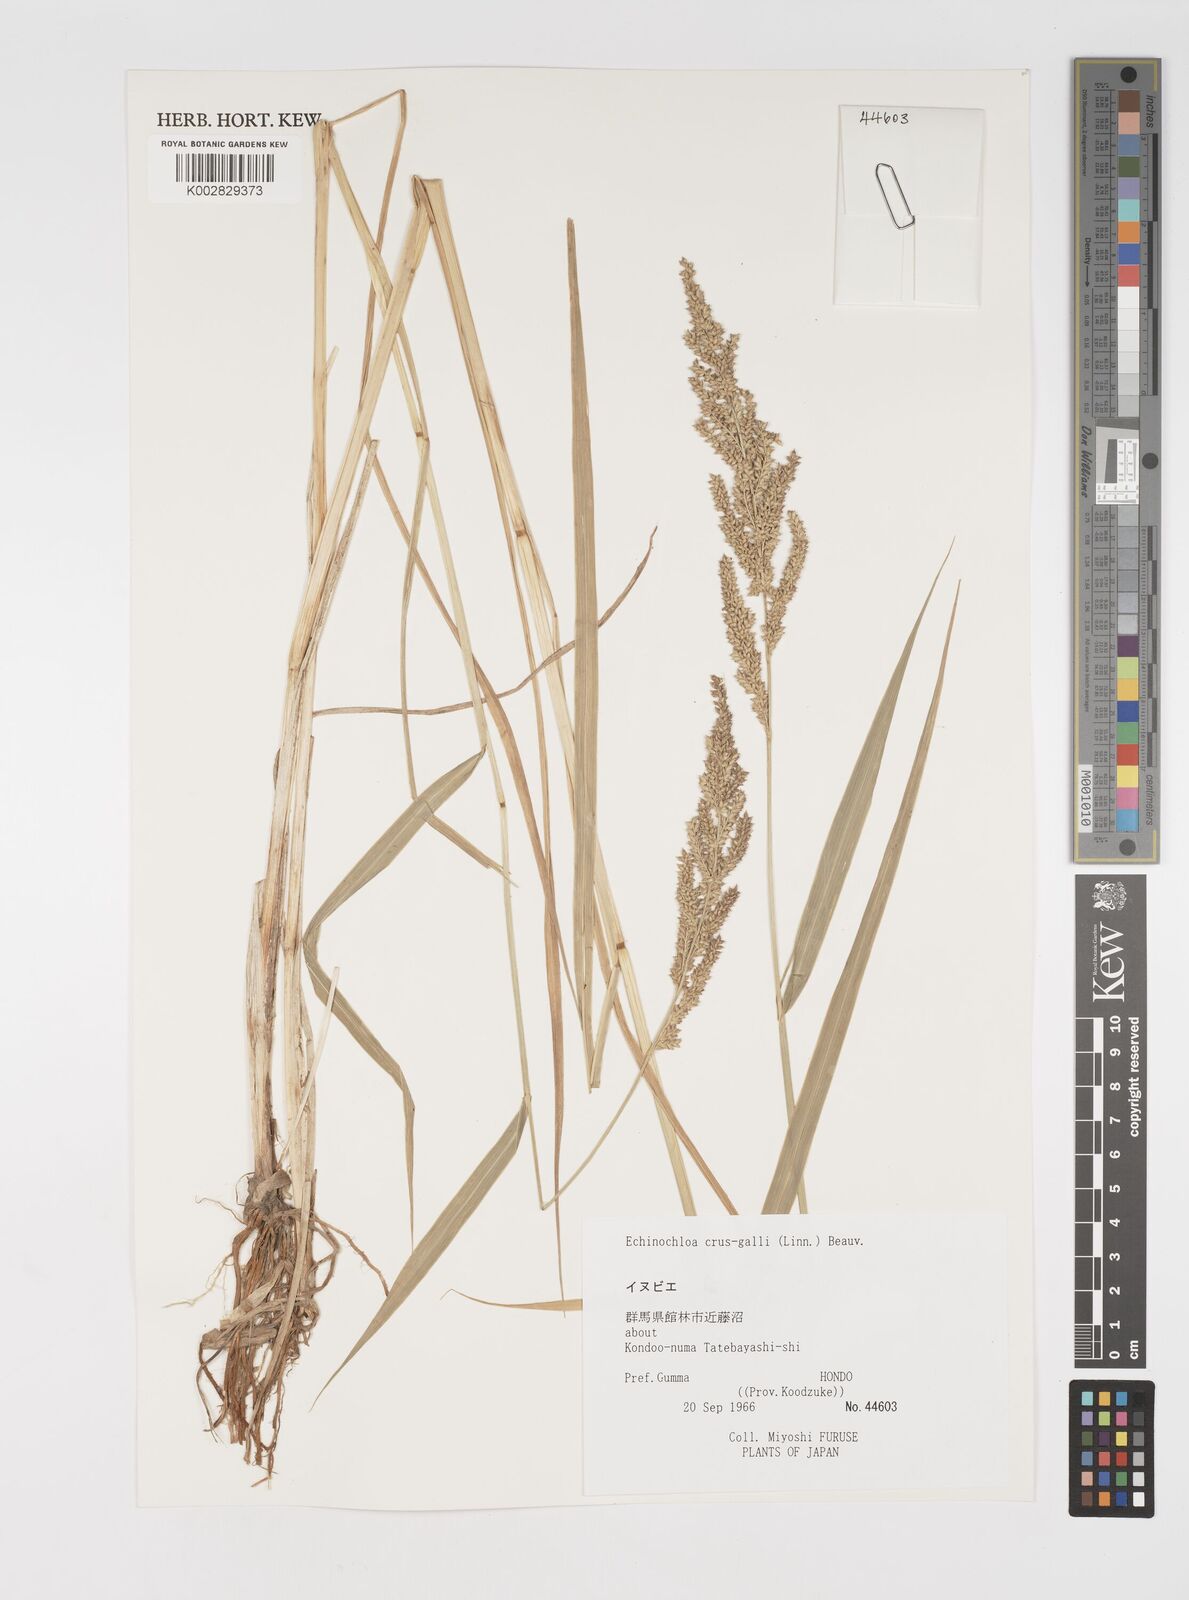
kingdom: Plantae
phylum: Tracheophyta
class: Liliopsida
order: Poales
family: Poaceae
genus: Echinochloa
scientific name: Echinochloa crus-galli
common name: Cockspur
